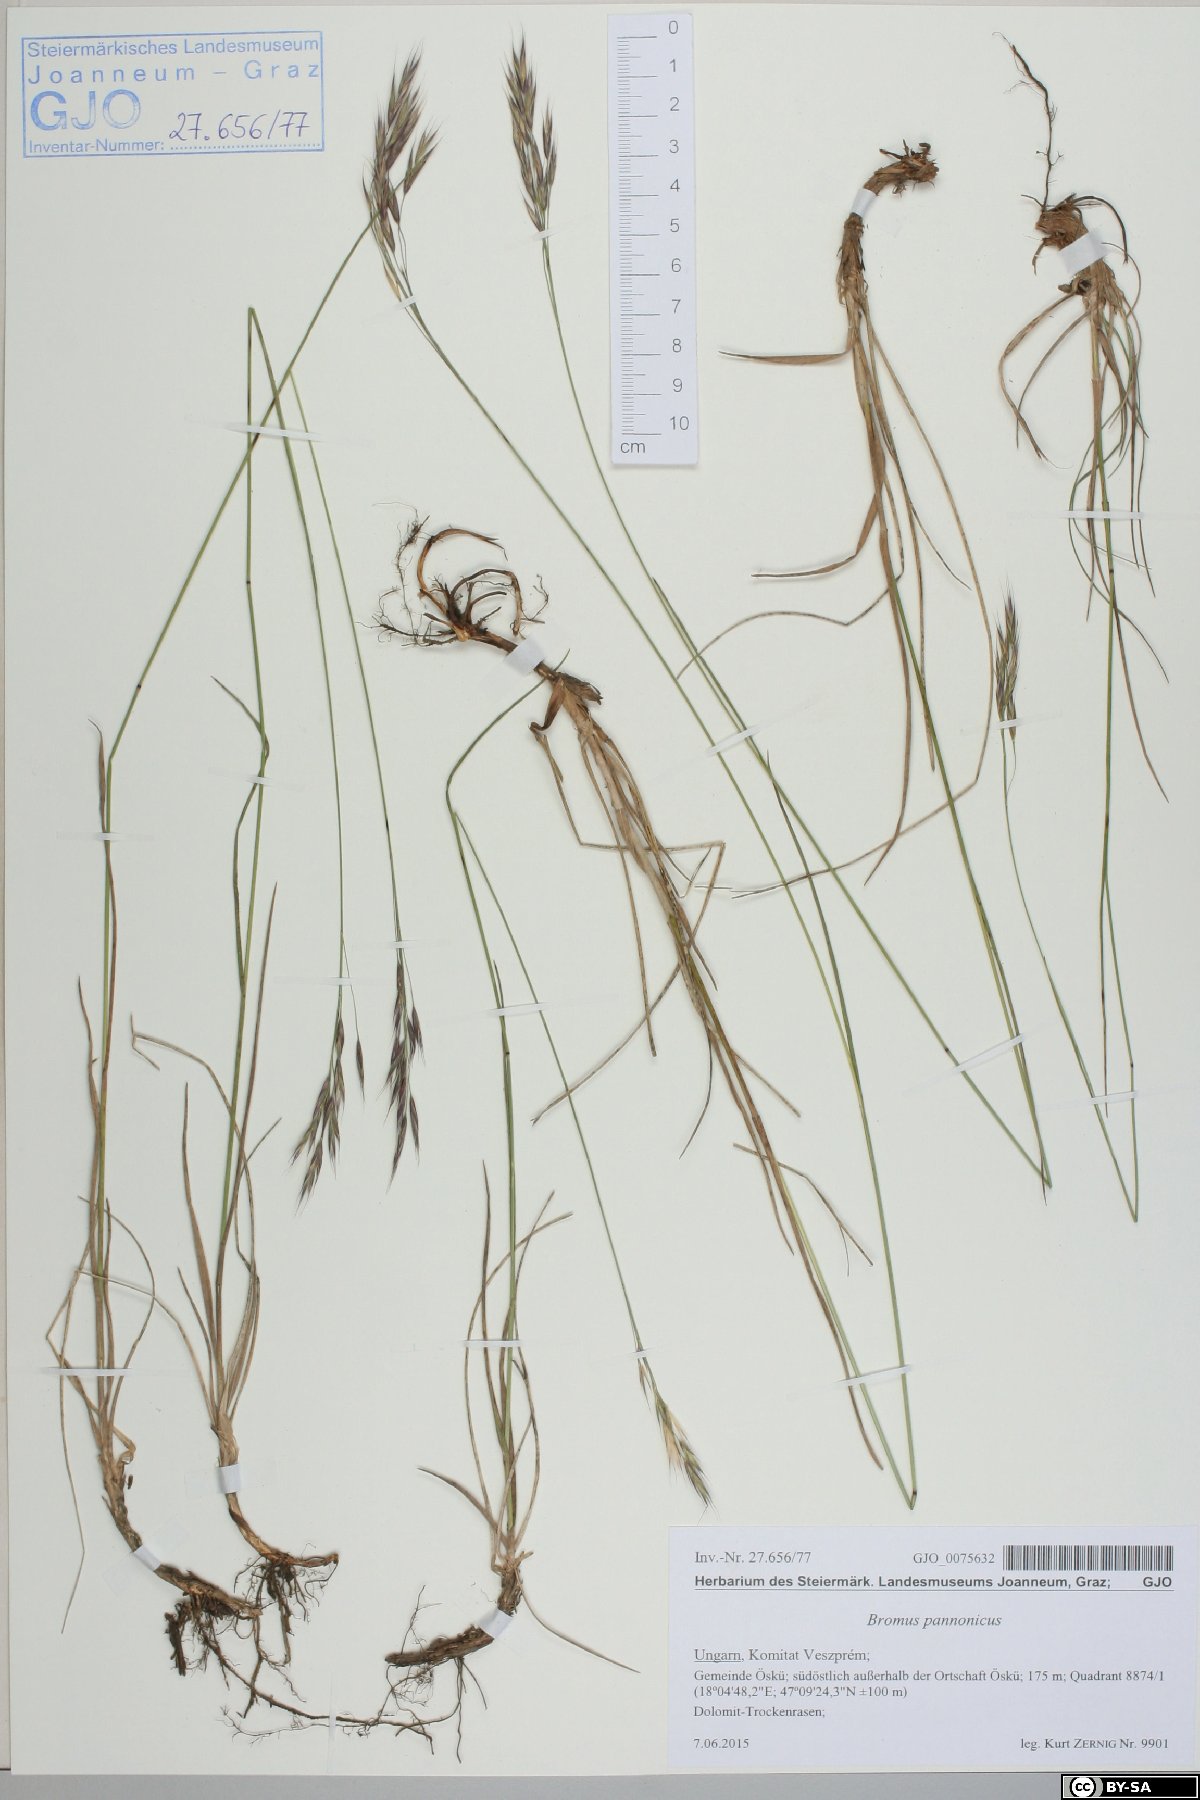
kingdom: Plantae
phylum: Tracheophyta
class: Liliopsida
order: Poales
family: Poaceae
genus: Bromus
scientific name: Bromus pannonicus
